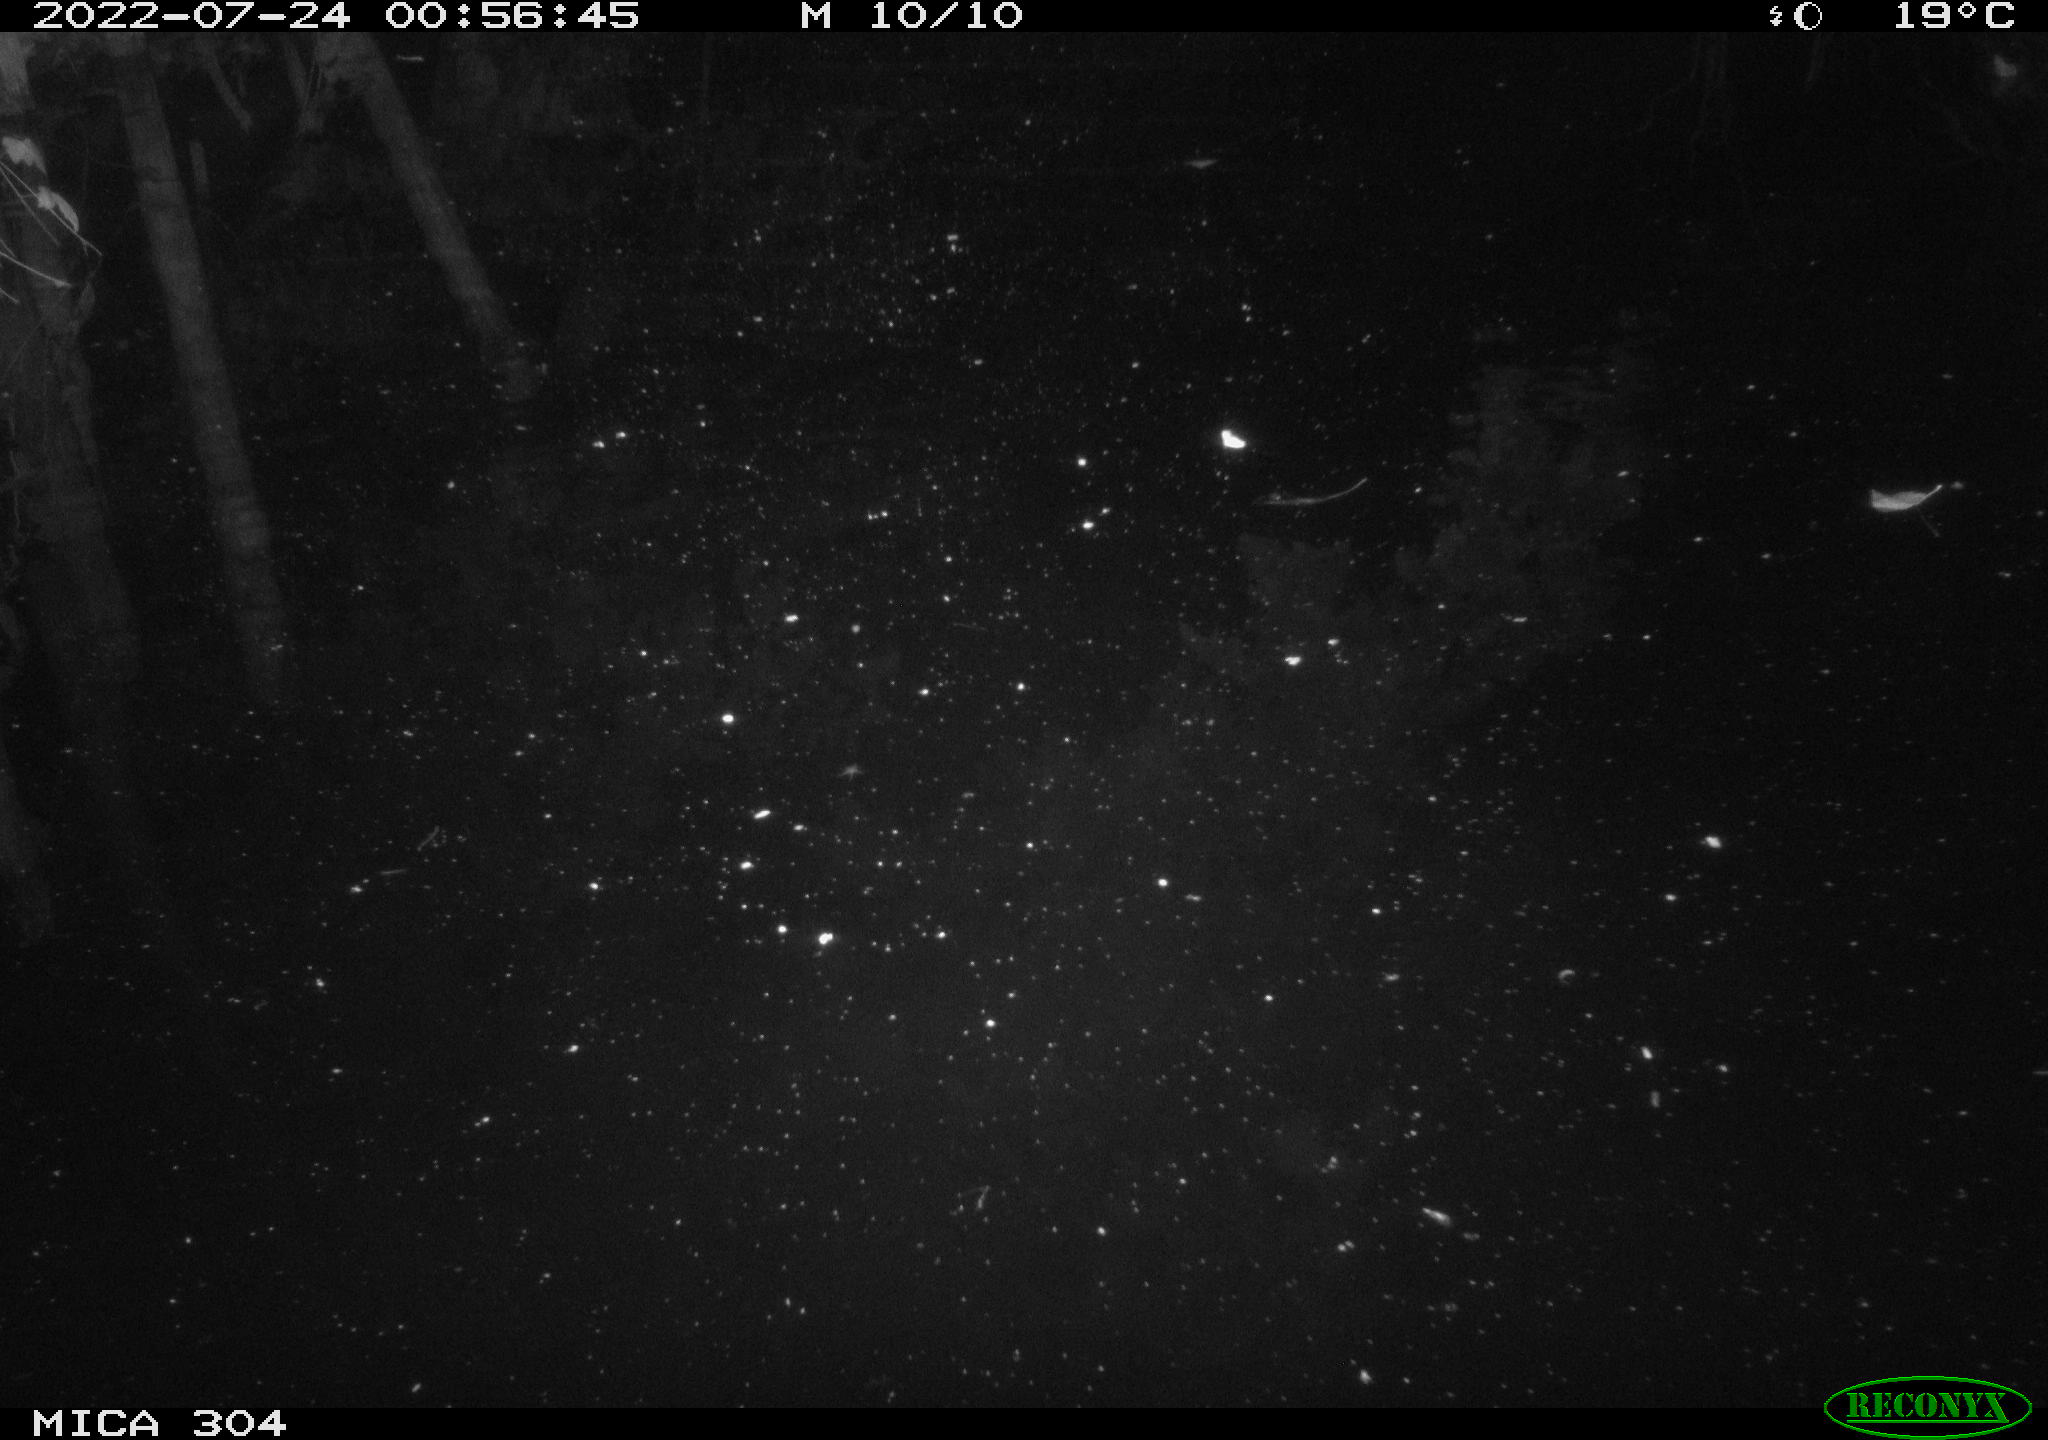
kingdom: Animalia
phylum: Chordata
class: Mammalia
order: Rodentia
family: Muridae
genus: Rattus
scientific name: Rattus norvegicus
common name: Brown rat
